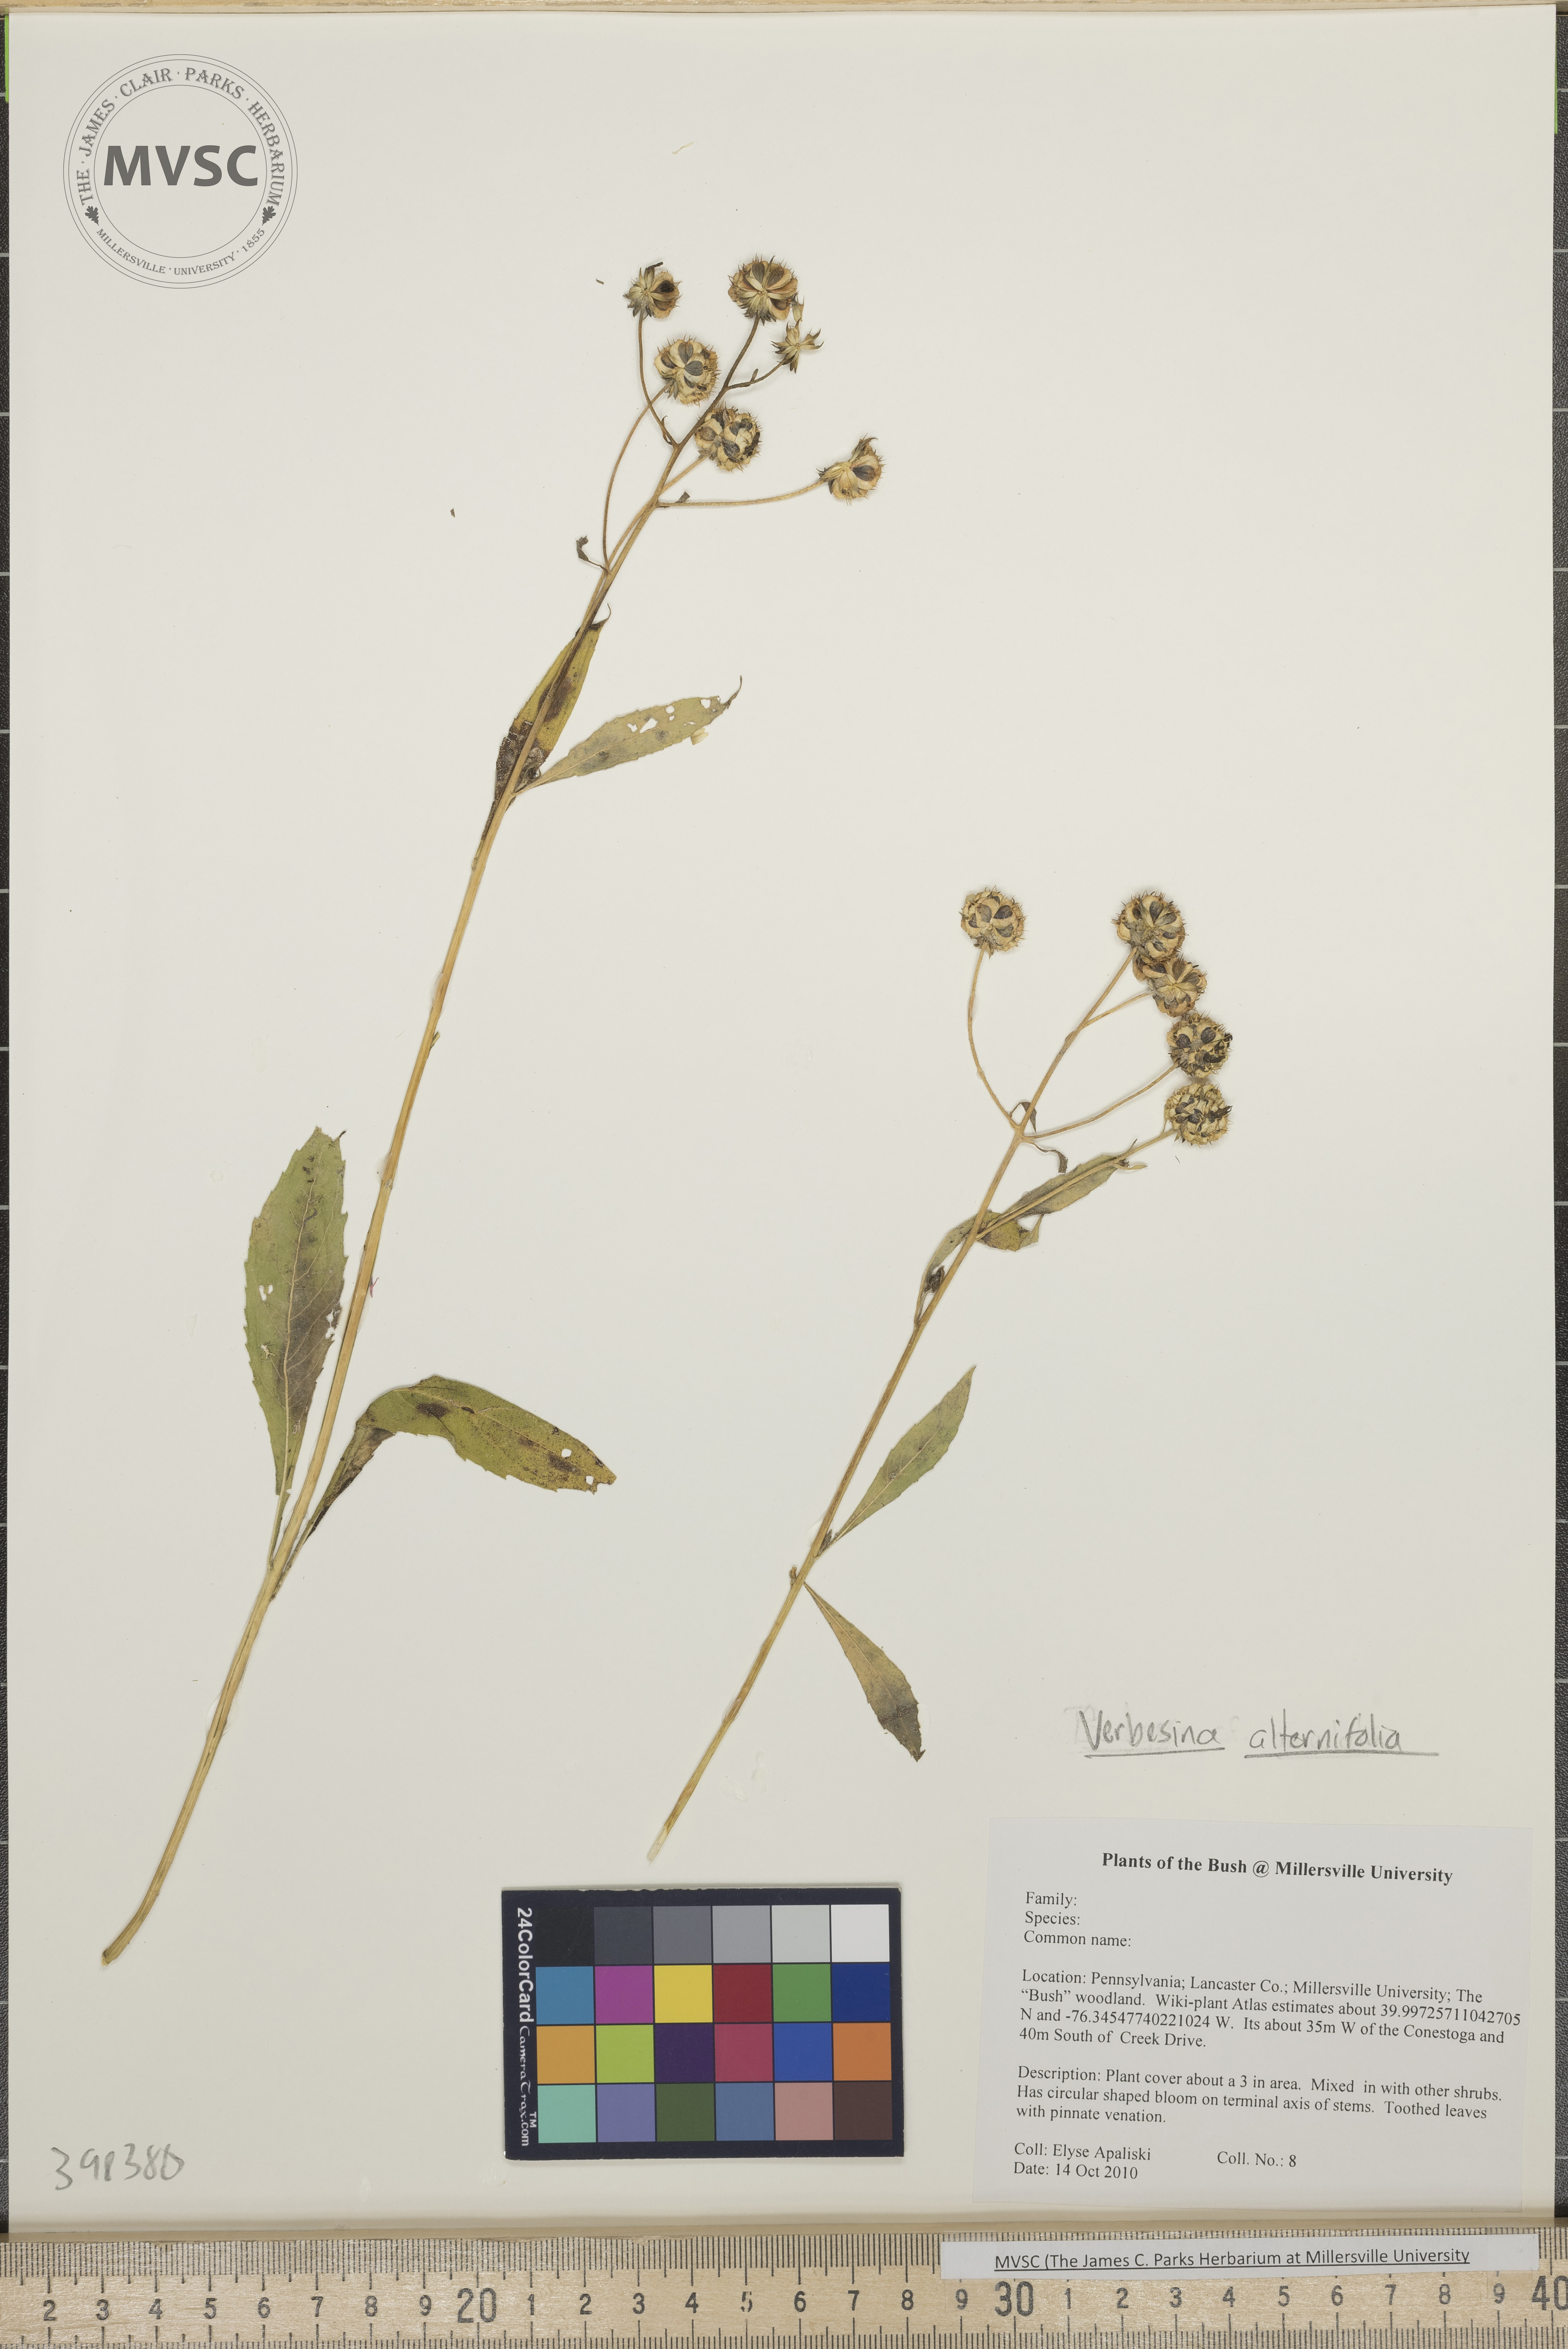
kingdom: Plantae
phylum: Tracheophyta
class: Magnoliopsida
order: Asterales
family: Asteraceae
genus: Verbesina
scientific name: Verbesina alternifolia
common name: Wingstem
